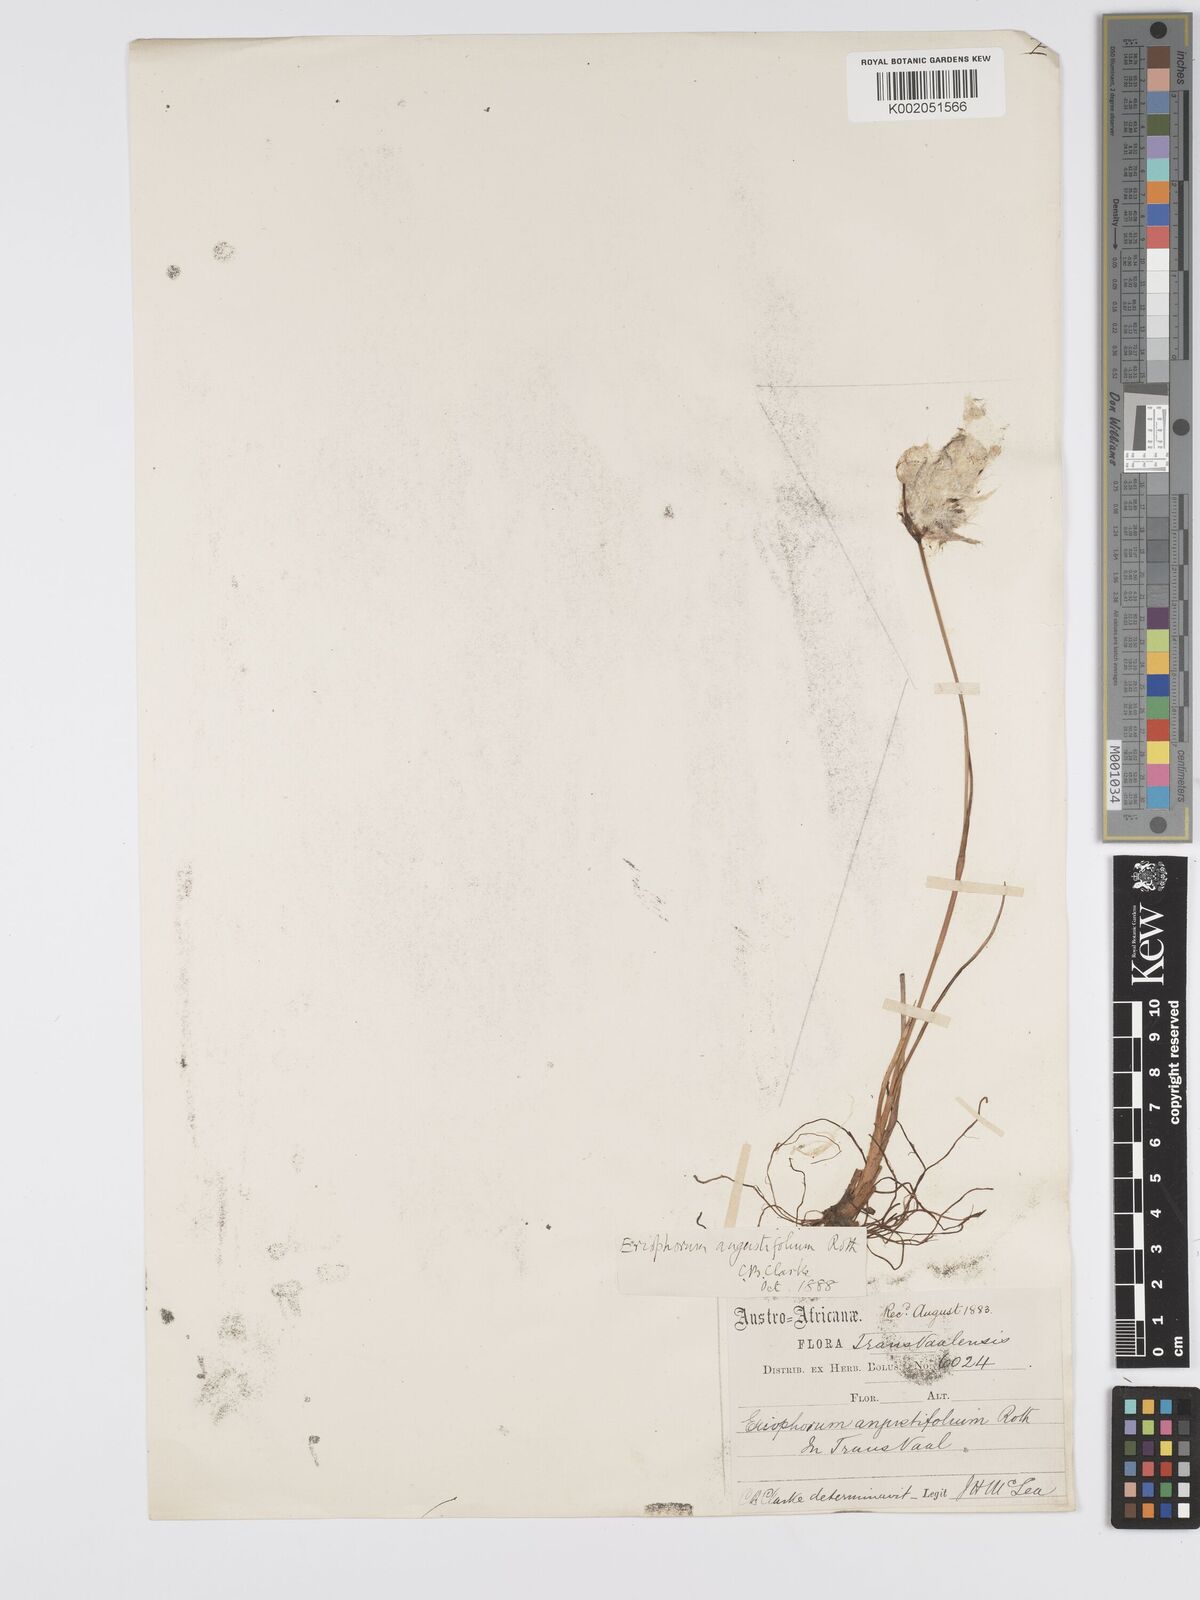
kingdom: Plantae
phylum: Tracheophyta
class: Liliopsida
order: Poales
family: Cyperaceae
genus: Eriophorum
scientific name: Eriophorum angustifolium
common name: Common cottongrass
